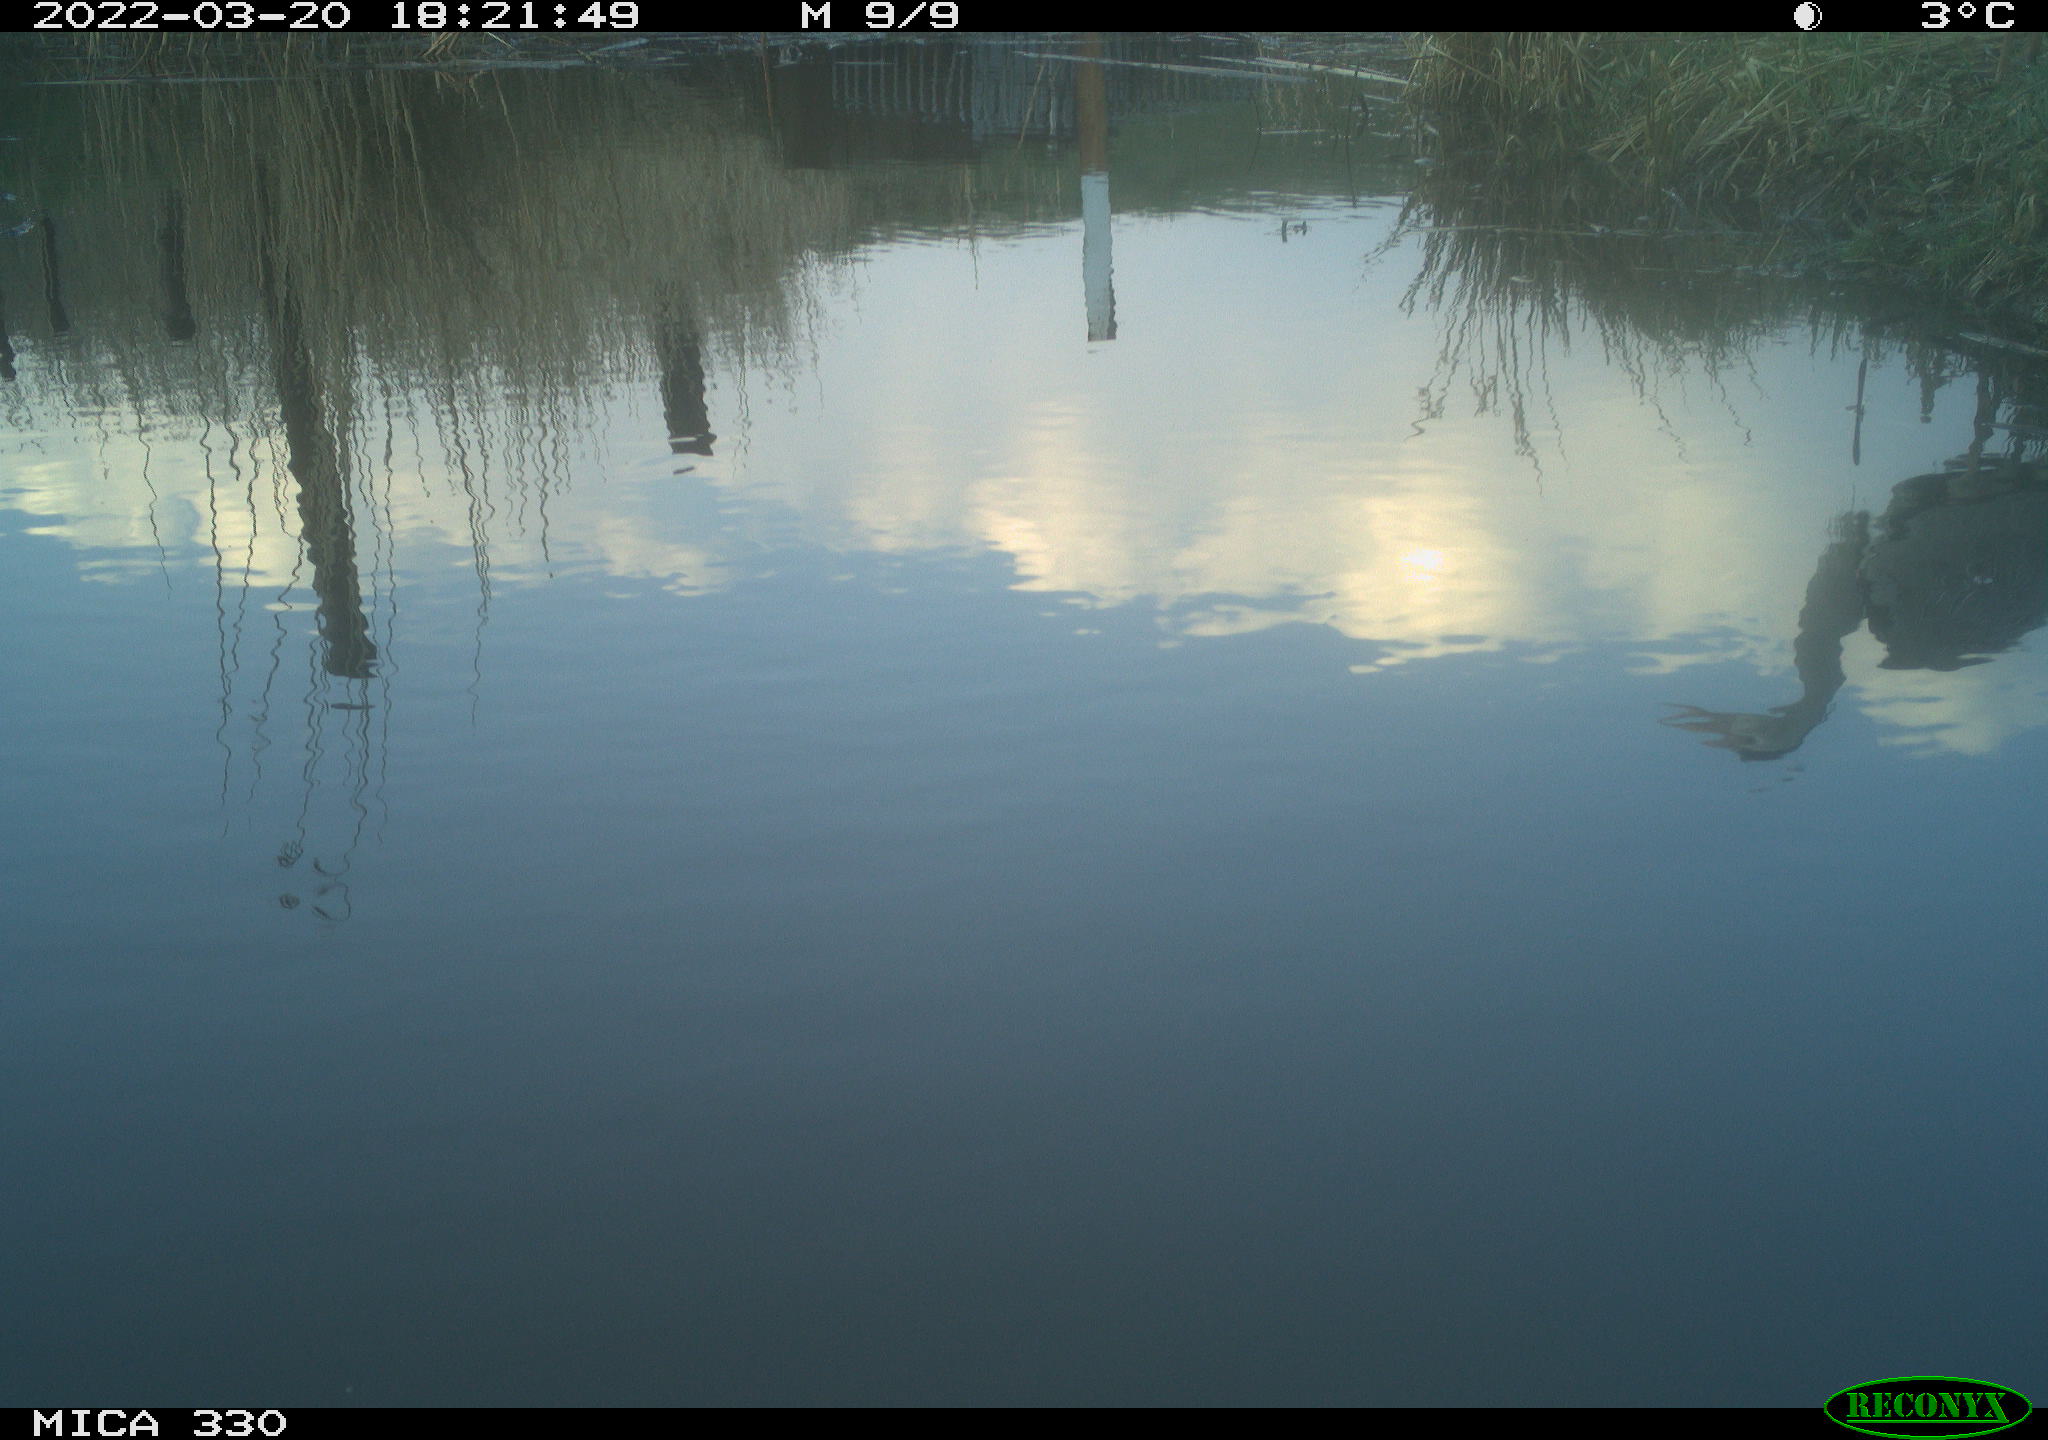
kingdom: Animalia
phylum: Chordata
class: Aves
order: Pelecaniformes
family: Ardeidae
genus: Ardea
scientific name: Ardea cinerea
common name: Grey heron
